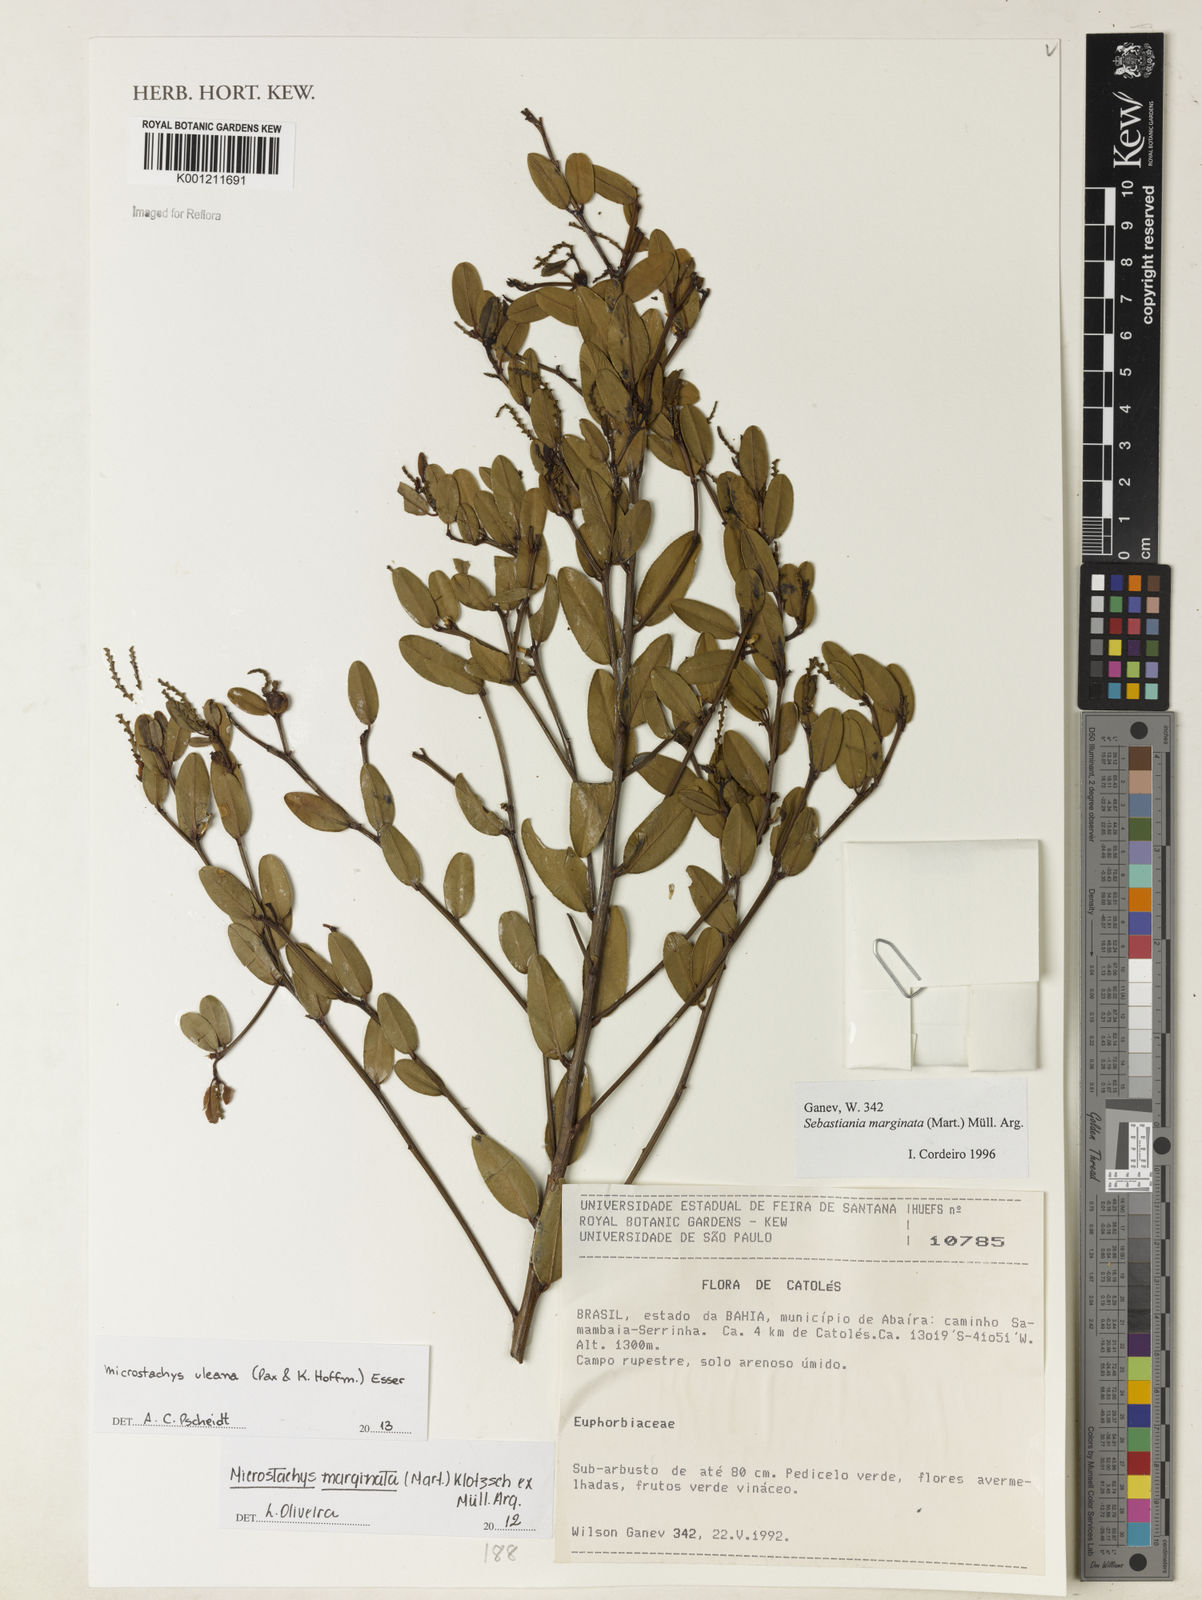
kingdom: Plantae
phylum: Tracheophyta
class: Magnoliopsida
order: Malpighiales
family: Euphorbiaceae
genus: Microstachys
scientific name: Microstachys uleana
